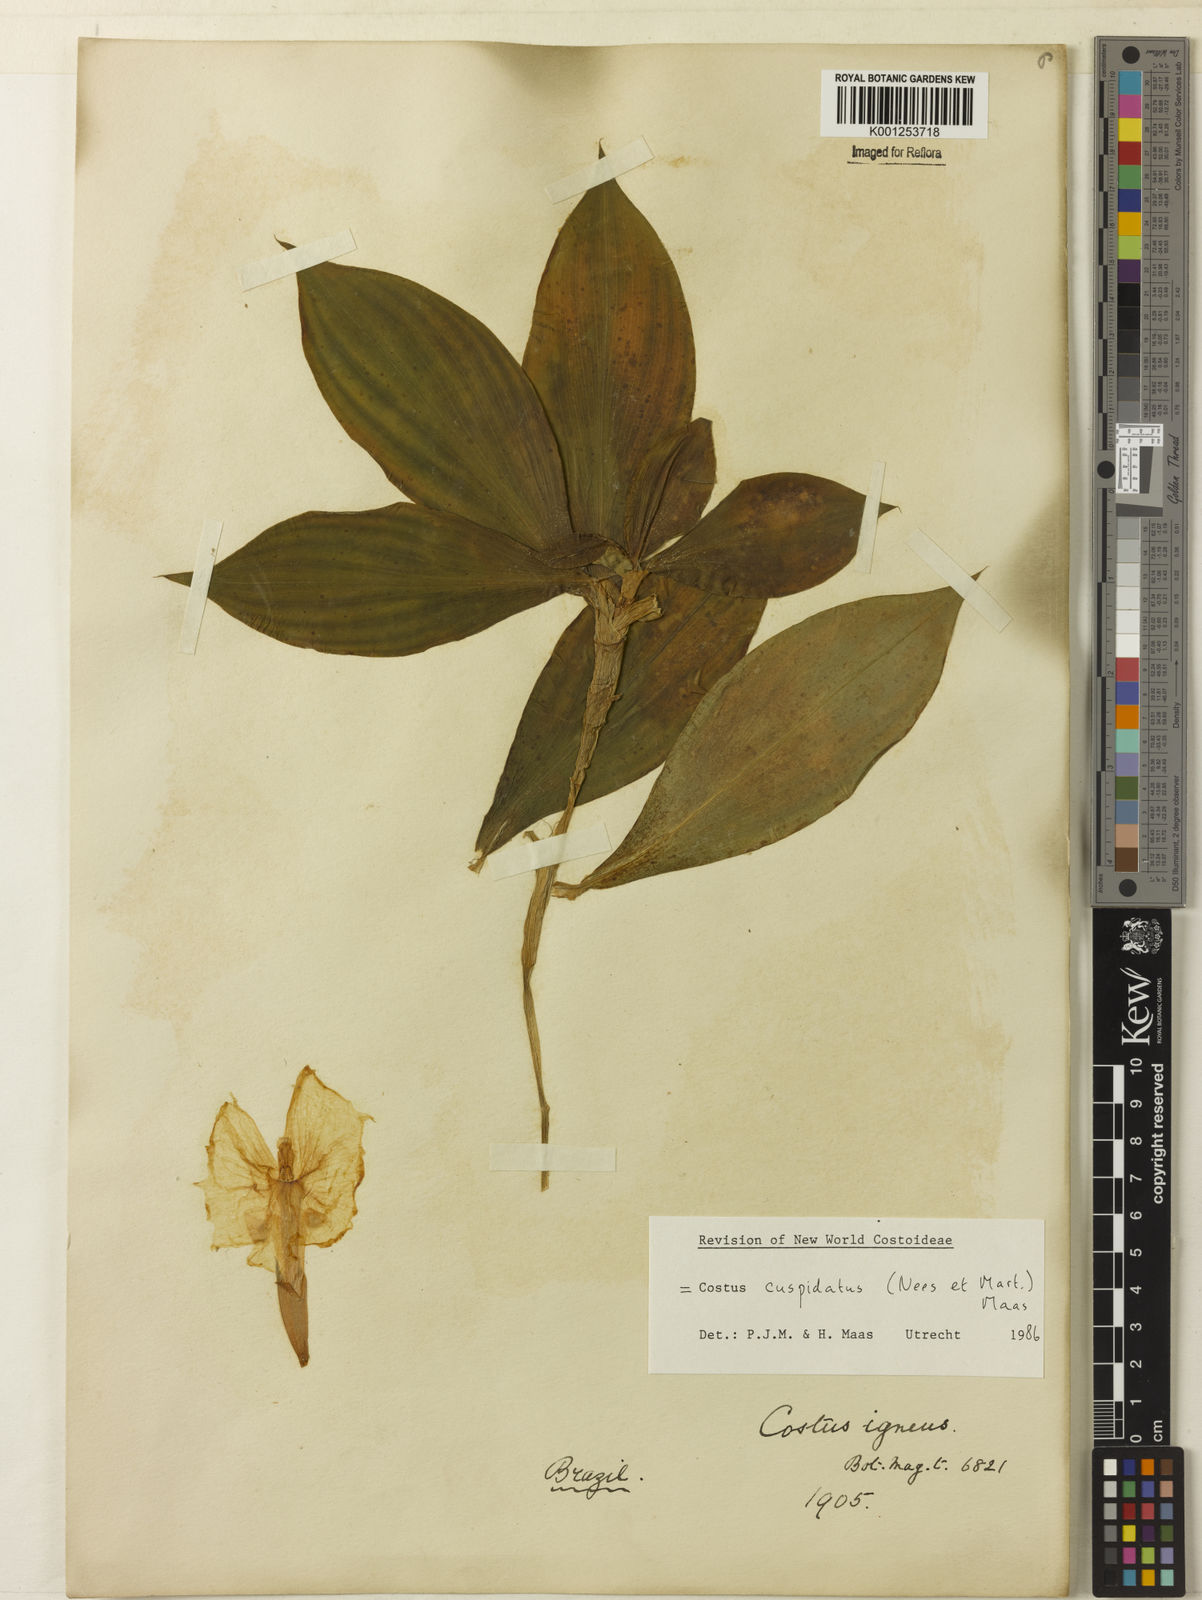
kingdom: Plantae
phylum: Tracheophyta
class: Liliopsida
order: Zingiberales
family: Costaceae
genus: Chamaecostus
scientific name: Chamaecostus cuspidatus
